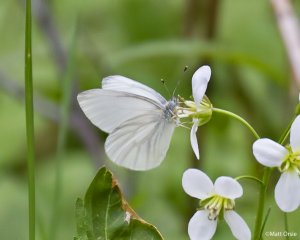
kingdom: Animalia
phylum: Arthropoda
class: Insecta
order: Lepidoptera
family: Pieridae
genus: Pieris
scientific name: Pieris virginiensis
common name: West Virginia White
